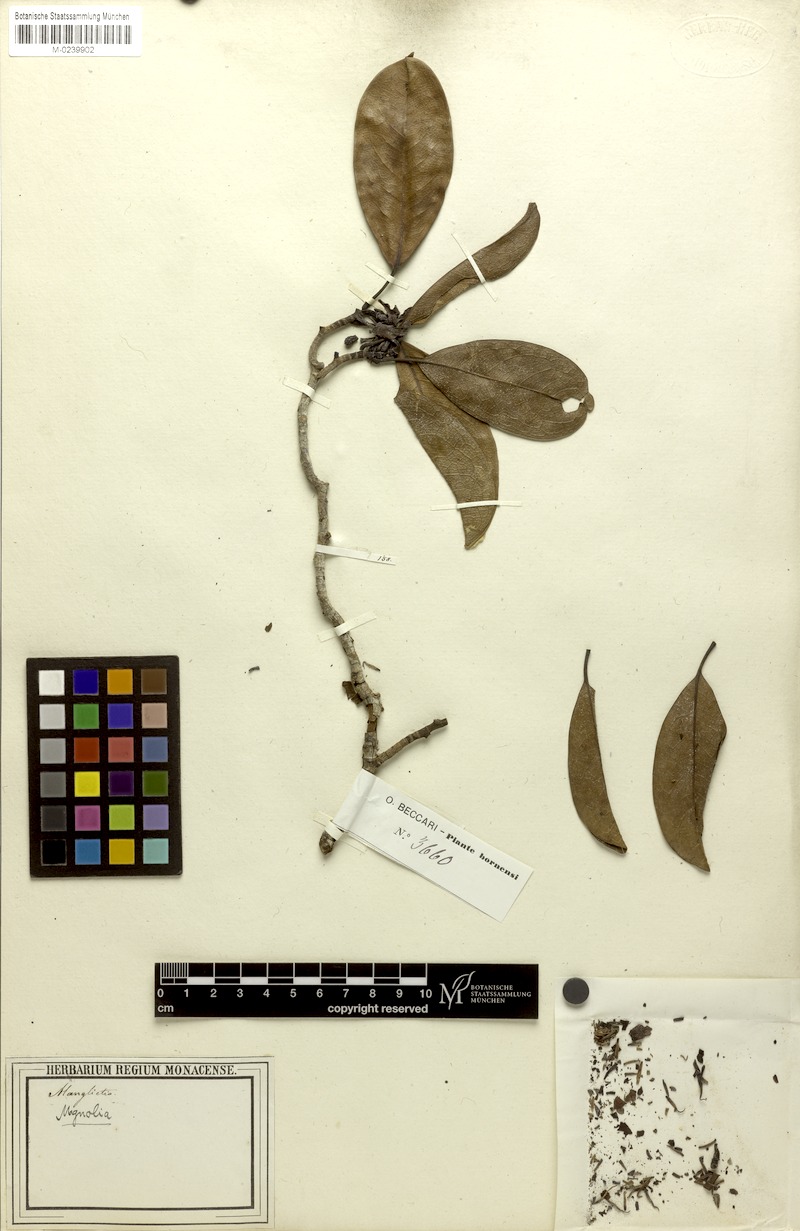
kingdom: Plantae
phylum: Tracheophyta
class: Magnoliopsida
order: Magnoliales
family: Magnoliaceae
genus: Magnolia
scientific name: Magnolia bintuluensis
